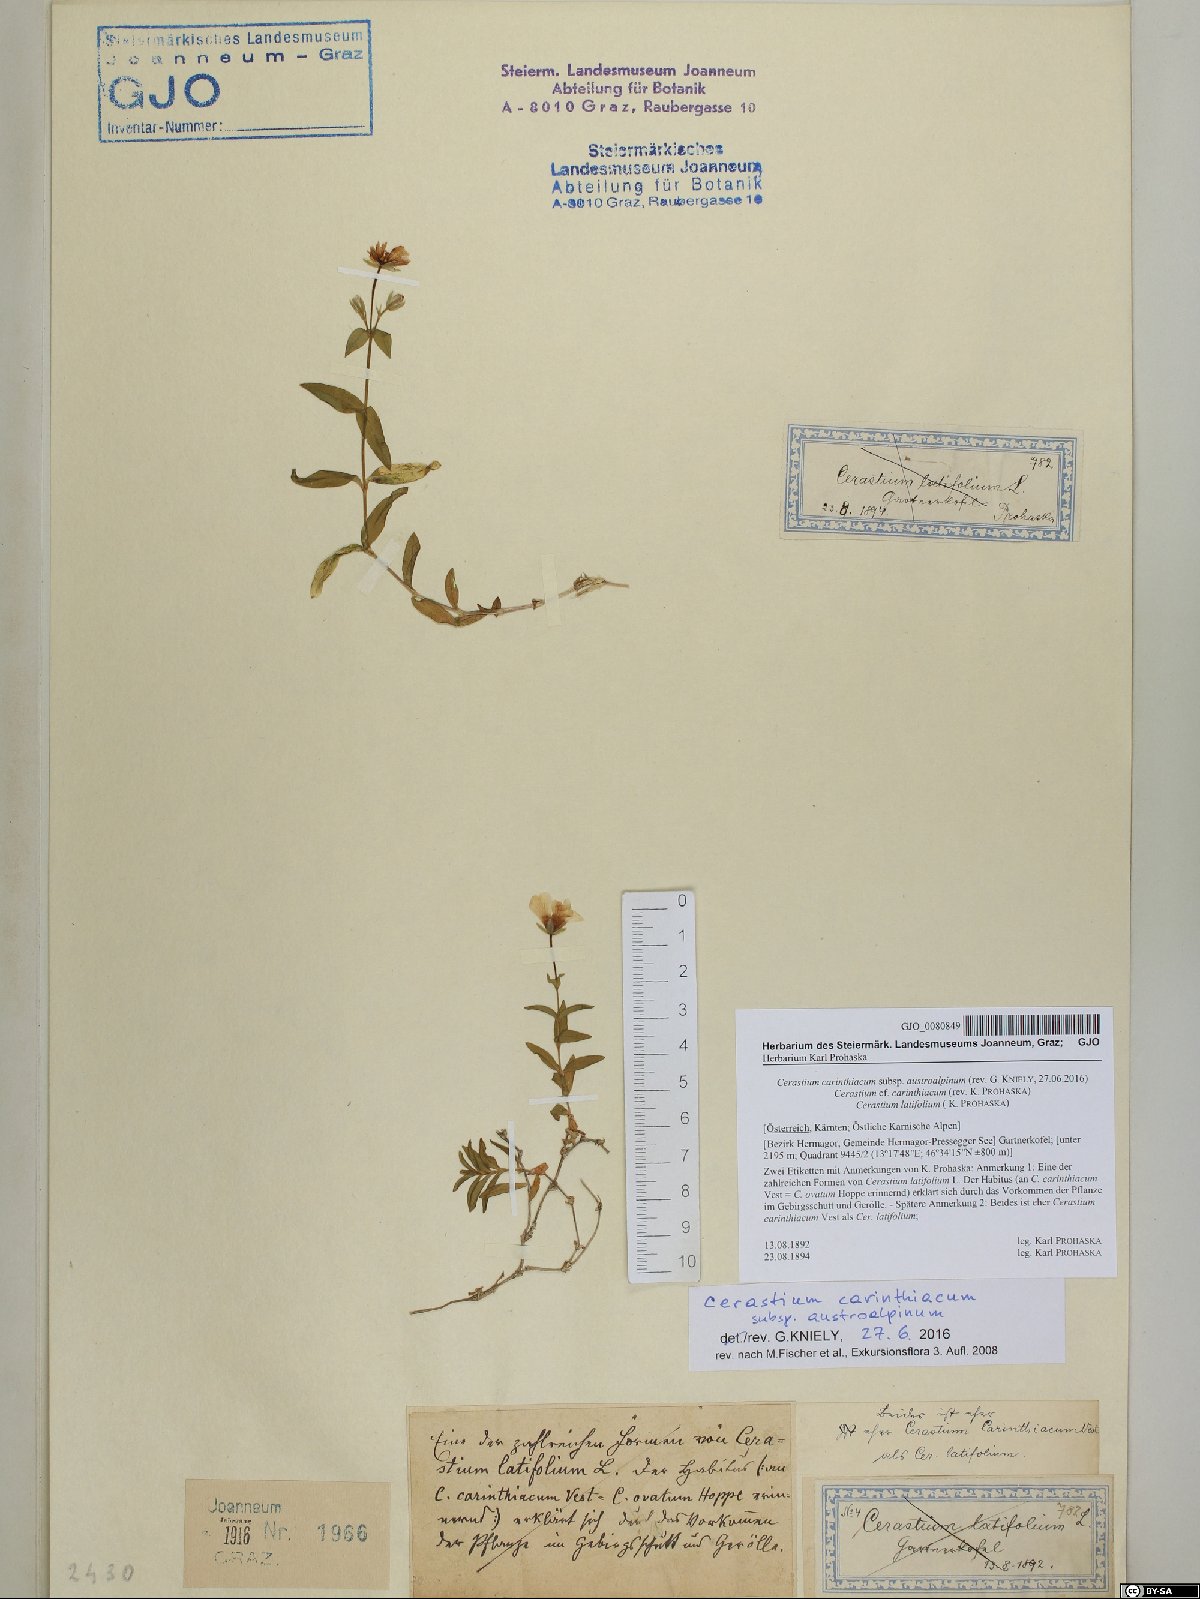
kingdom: Plantae
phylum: Tracheophyta
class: Magnoliopsida
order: Caryophyllales
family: Caryophyllaceae
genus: Cerastium
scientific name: Cerastium carinthiacum
